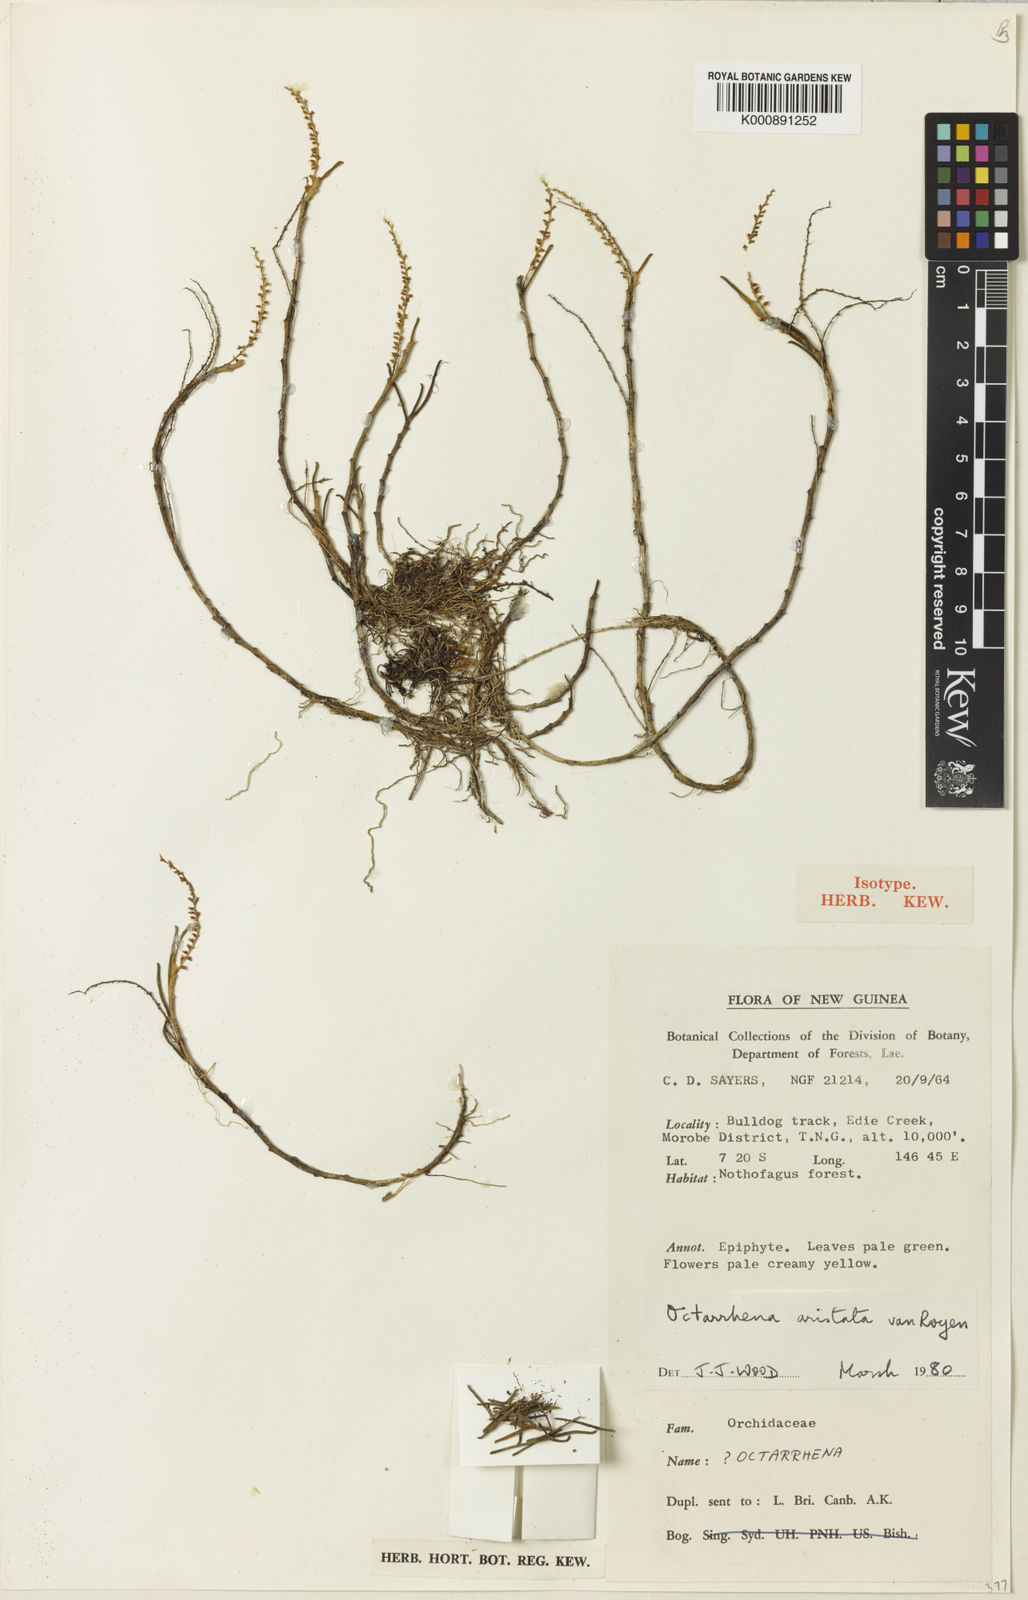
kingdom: Plantae
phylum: Tracheophyta
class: Liliopsida
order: Asparagales
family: Orchidaceae
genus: Octarrhena
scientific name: Octarrhena aristata
